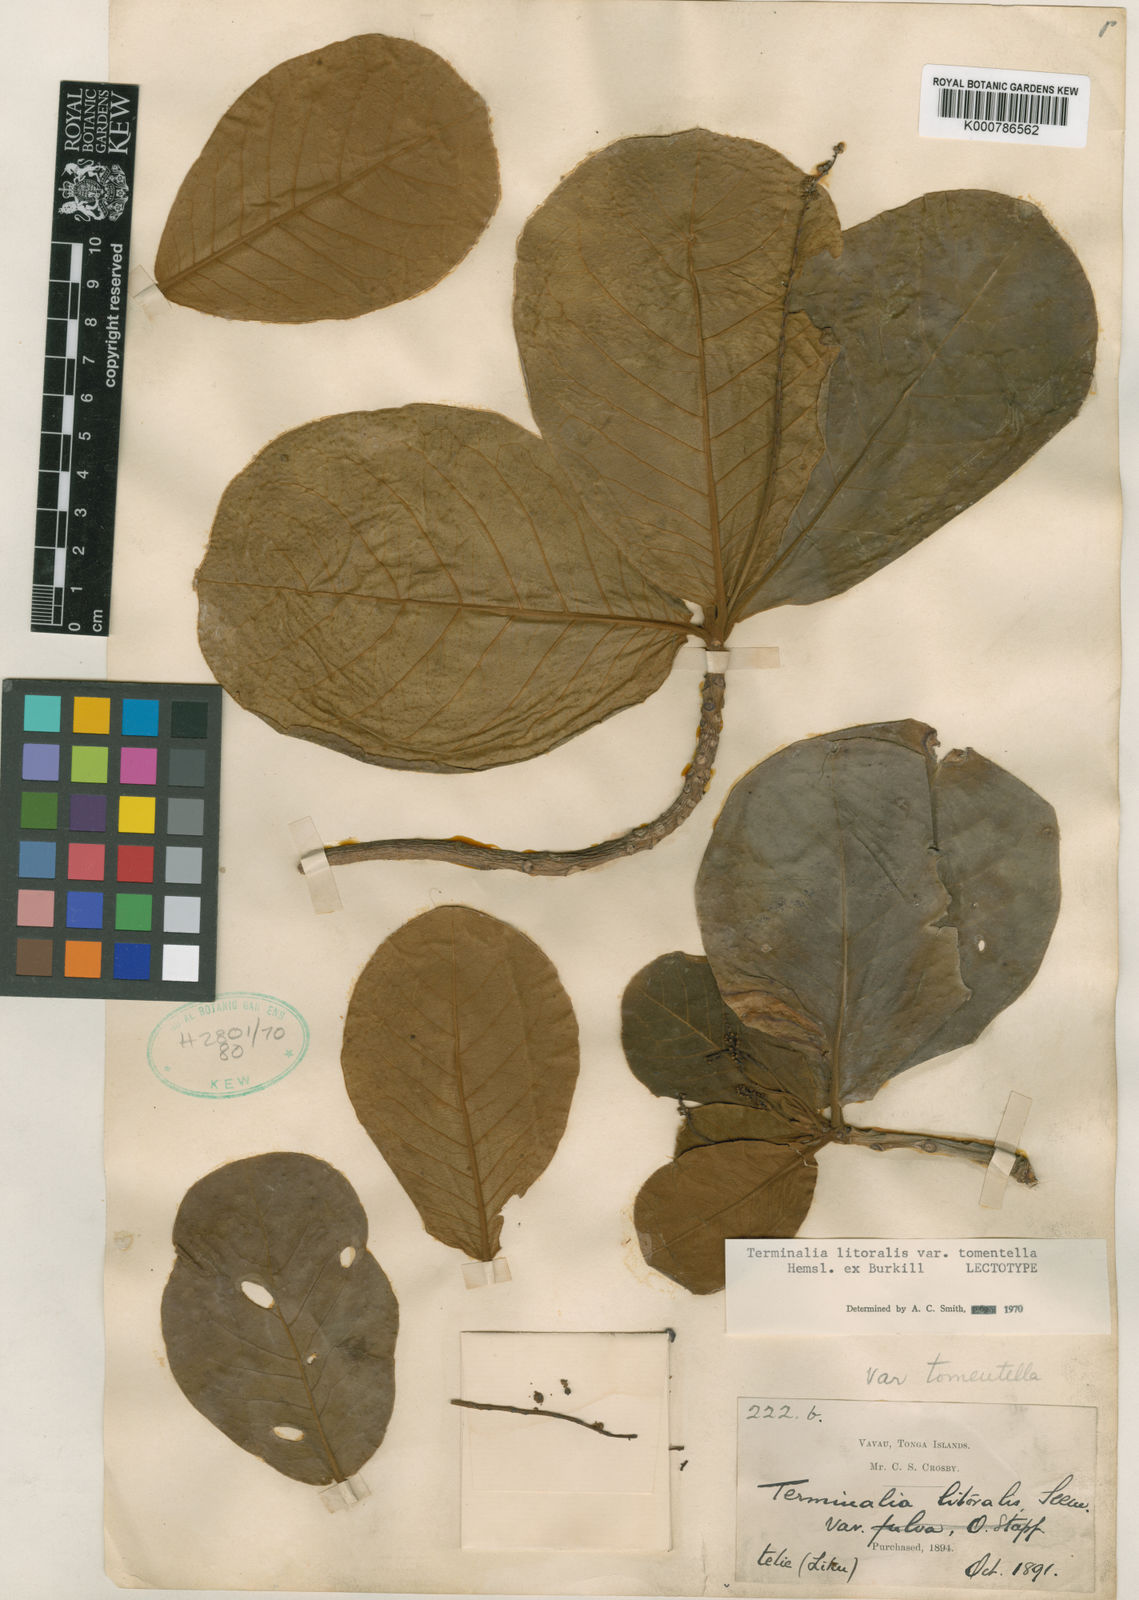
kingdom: Plantae
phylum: Tracheophyta
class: Magnoliopsida
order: Myrtales
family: Combretaceae
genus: Terminalia
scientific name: Terminalia litoralis
